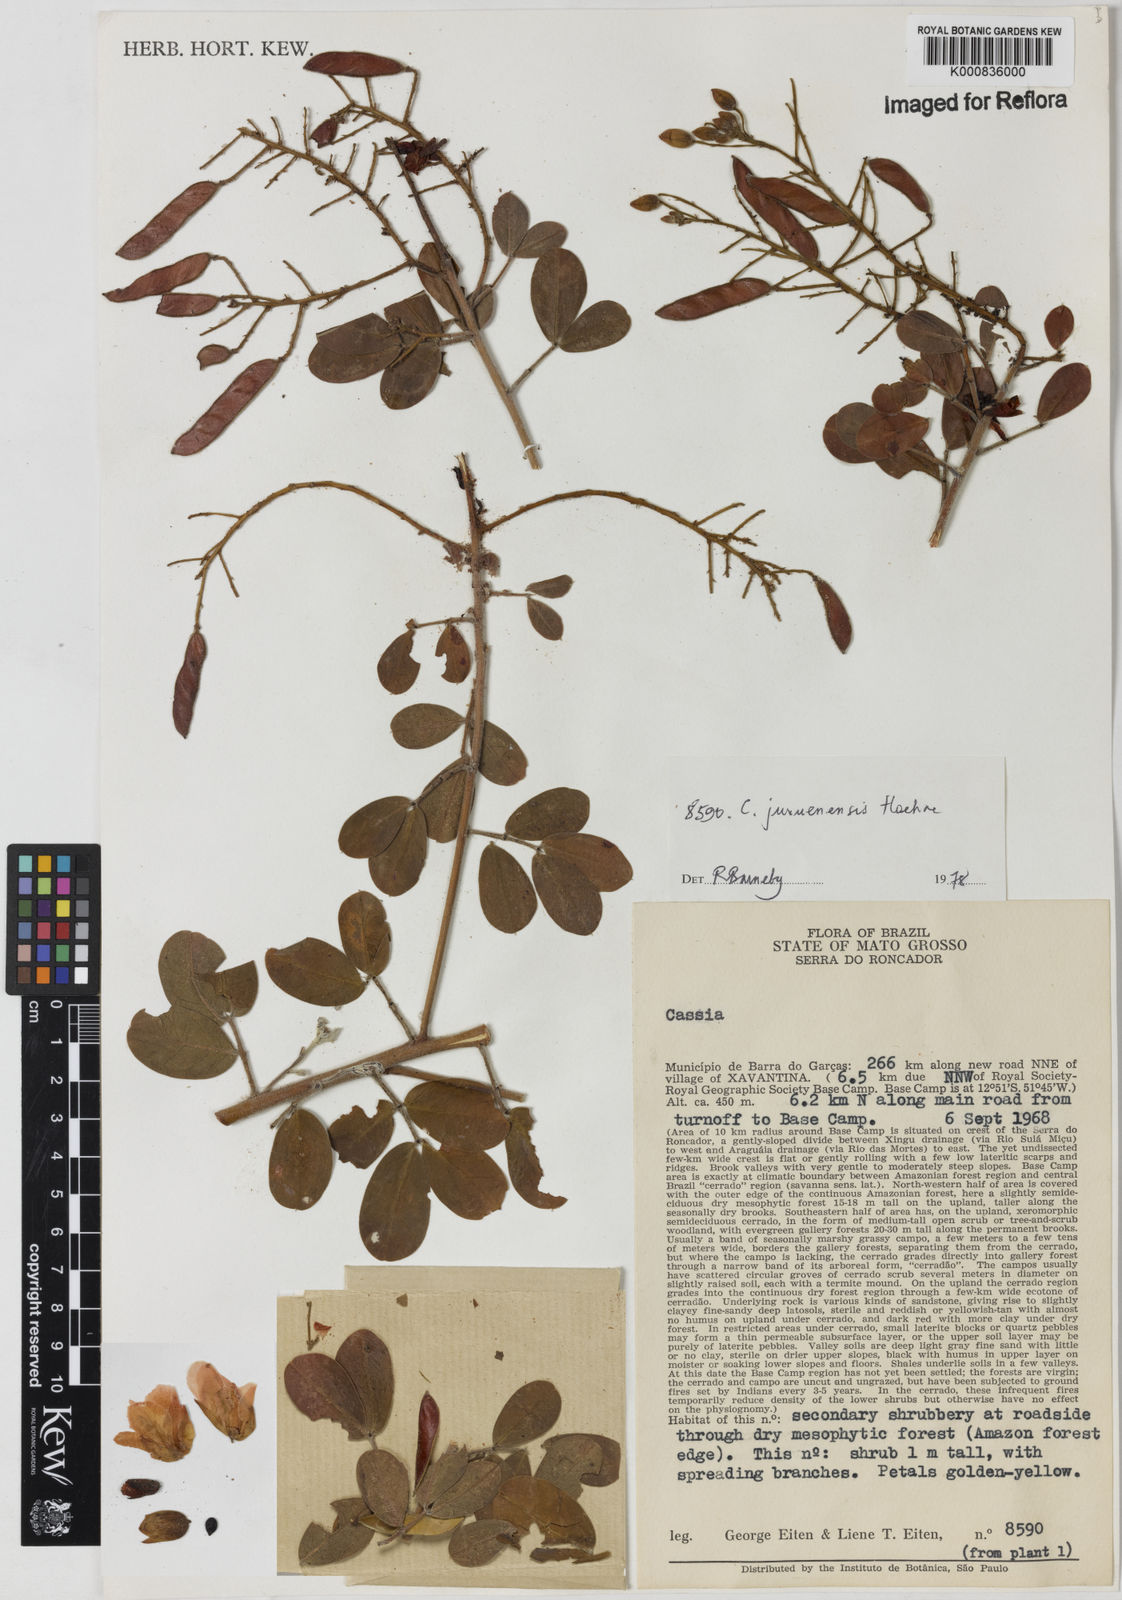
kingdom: Plantae
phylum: Tracheophyta
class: Magnoliopsida
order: Fabales
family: Fabaceae
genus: Chamaecrista
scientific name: Chamaecrista juruenensis
